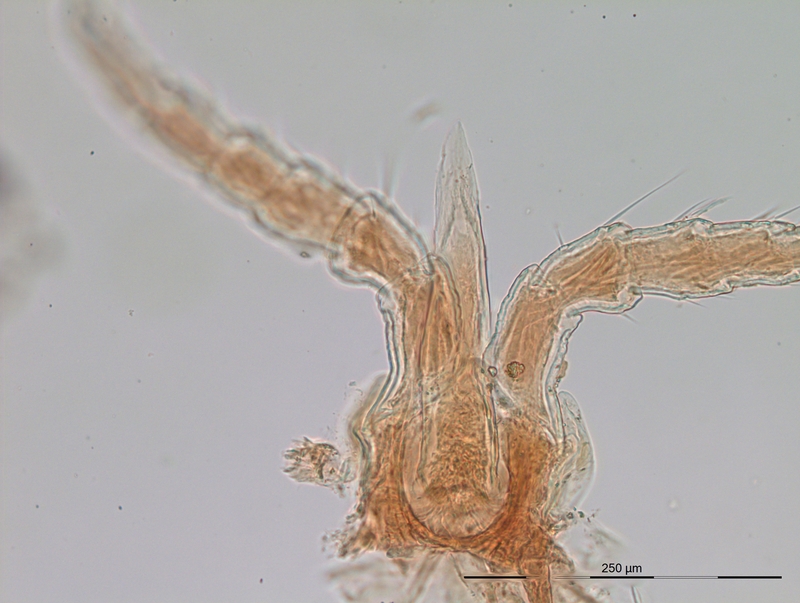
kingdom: Animalia
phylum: Arthropoda
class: Diplopoda
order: Julida
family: Blaniulidae
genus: Blaniulus
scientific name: Blaniulus guttulatus
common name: Spotted snake millipede
